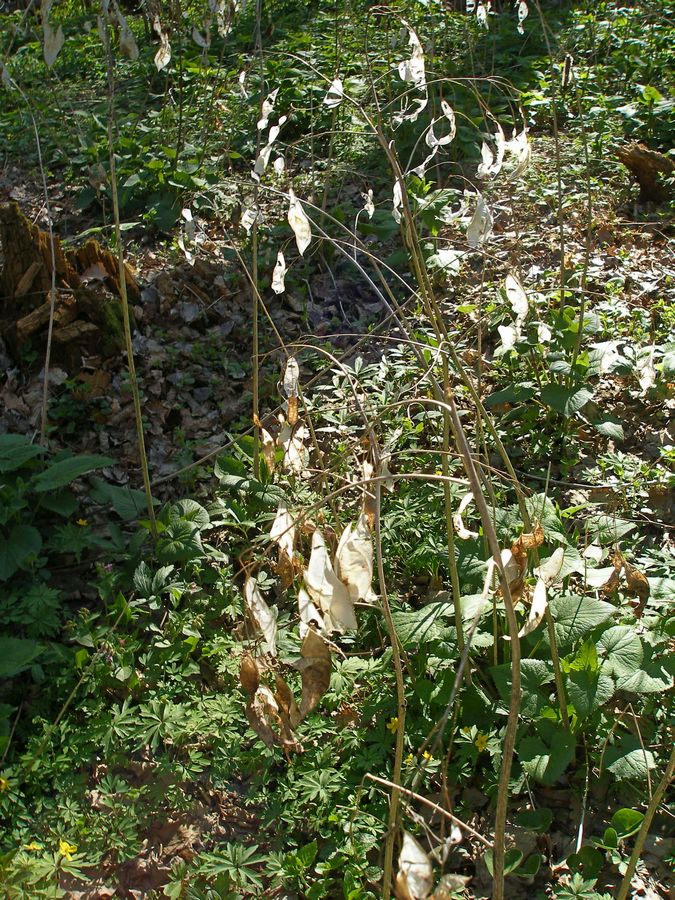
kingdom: Plantae
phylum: Tracheophyta
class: Magnoliopsida
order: Brassicales
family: Brassicaceae
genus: Lunaria
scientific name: Lunaria rediviva
